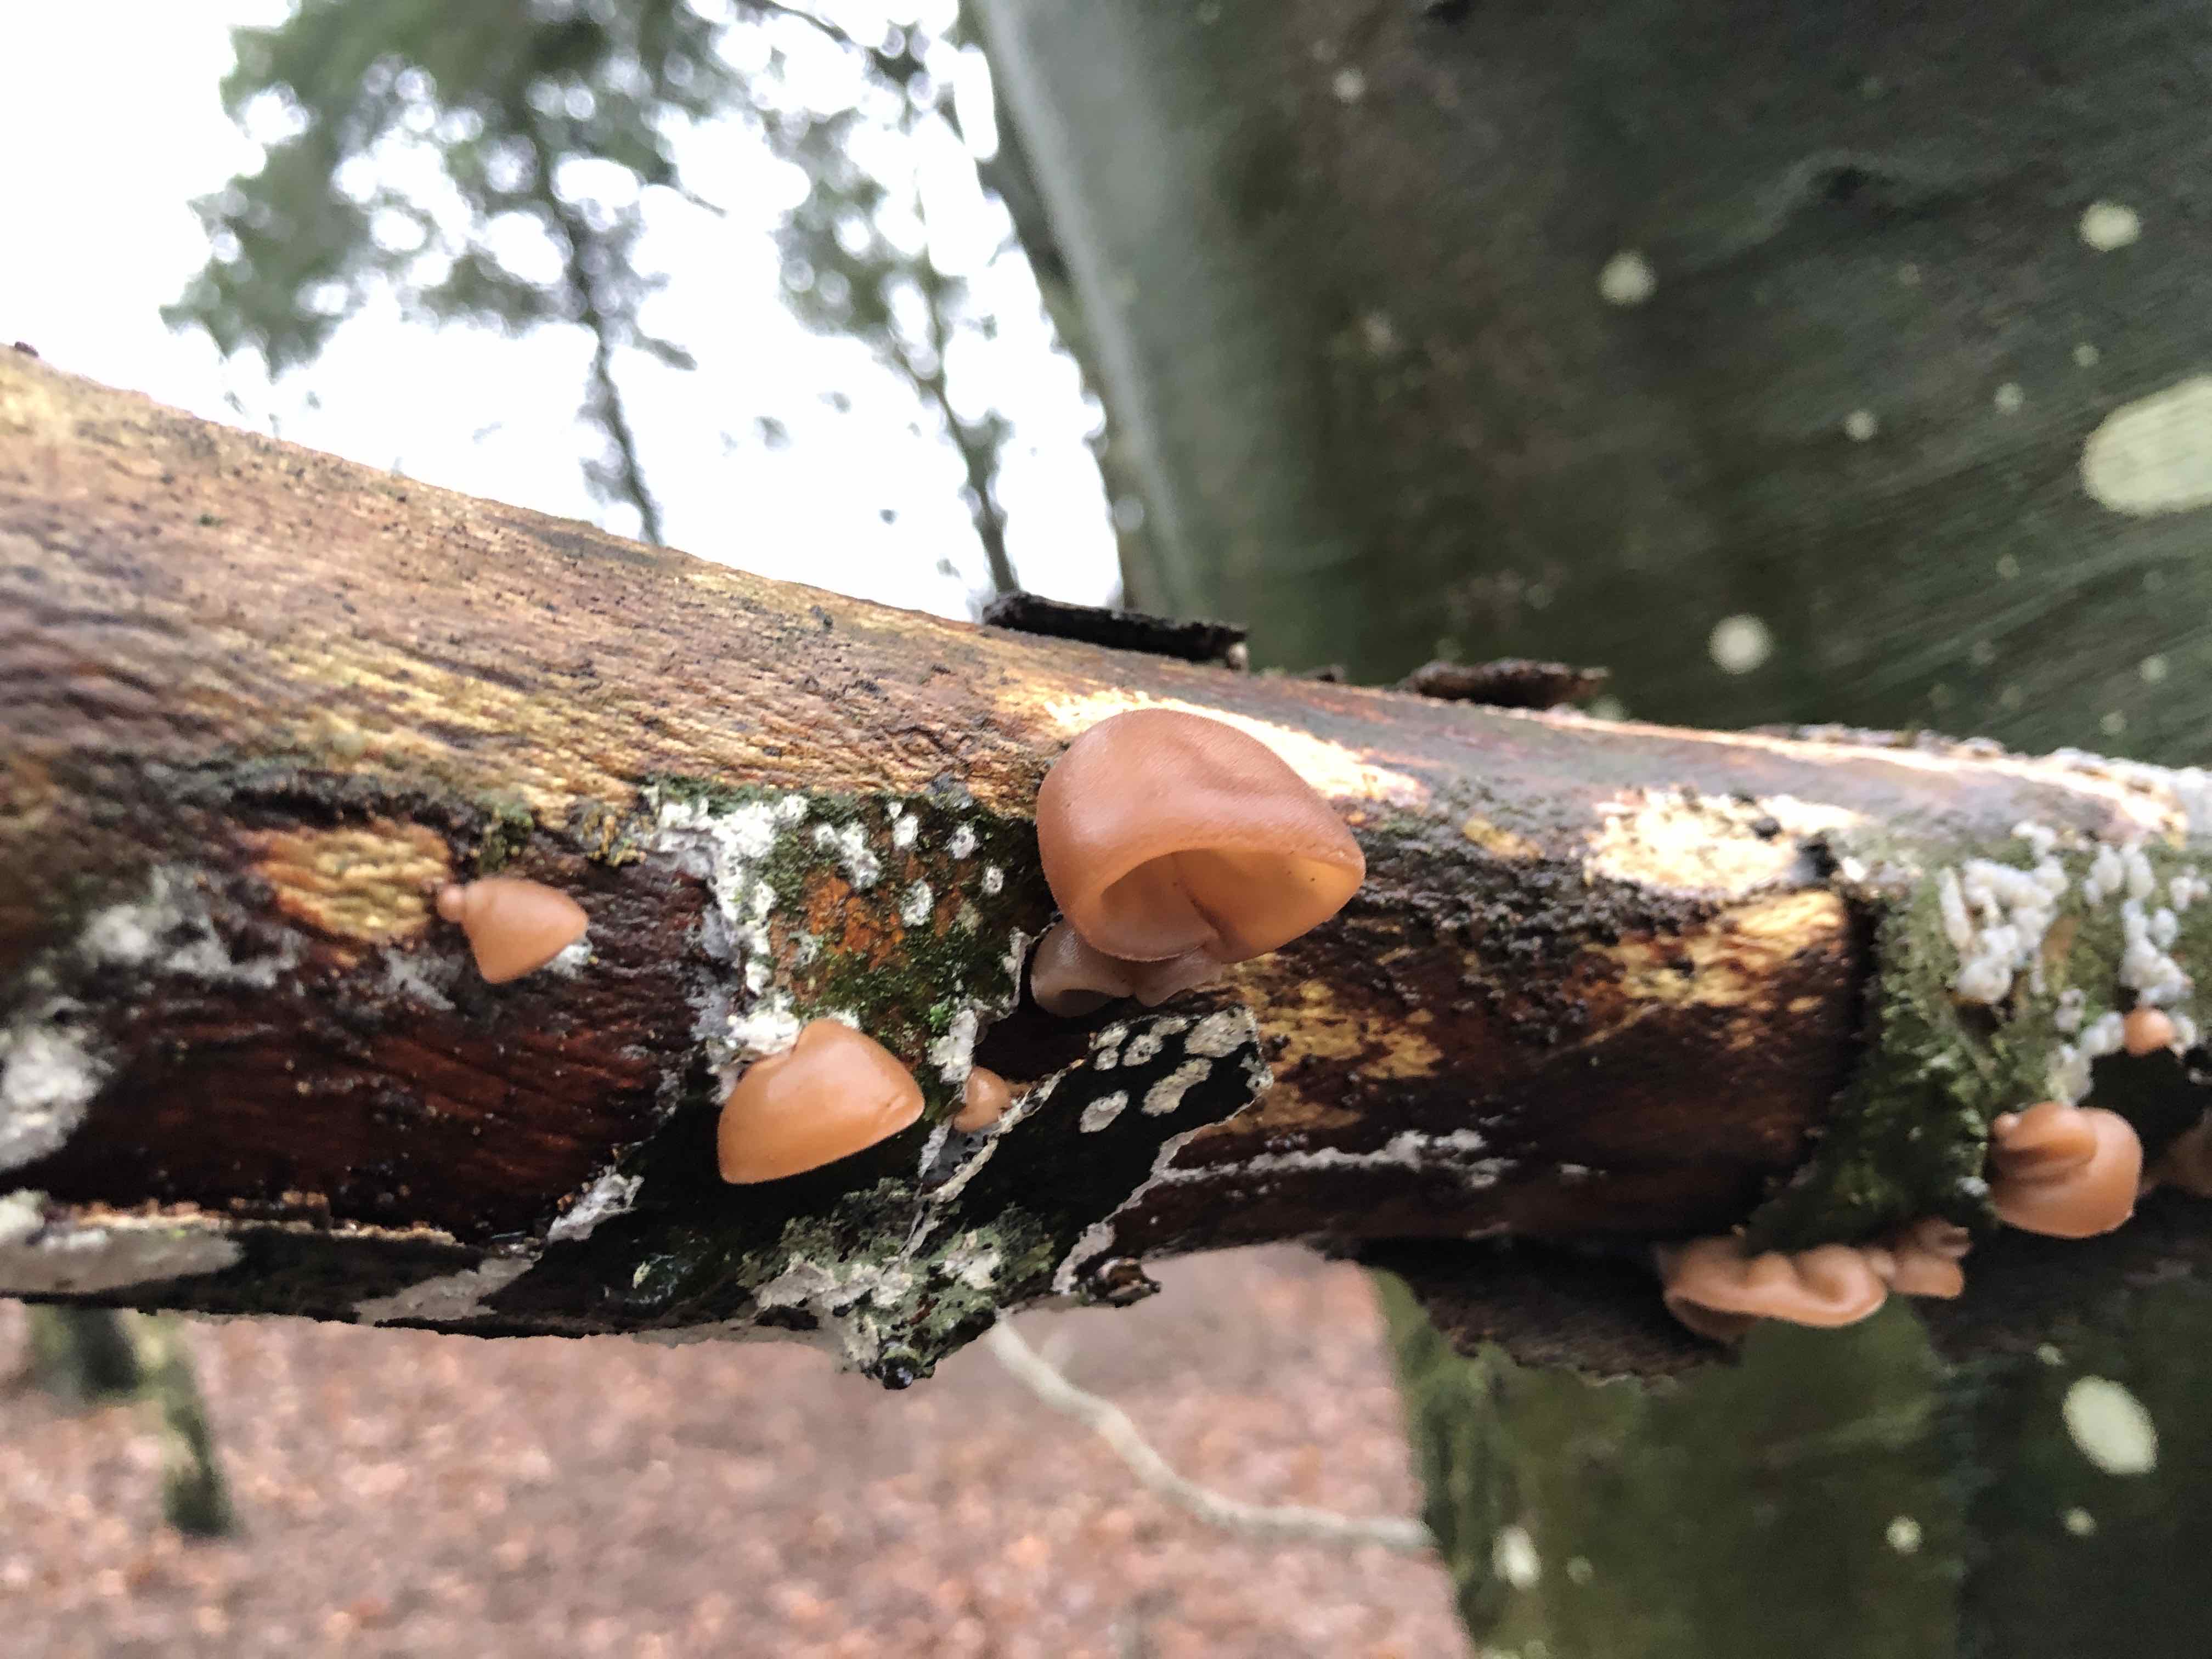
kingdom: Fungi
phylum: Basidiomycota
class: Agaricomycetes
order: Auriculariales
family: Auriculariaceae
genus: Auricularia
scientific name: Auricularia auricula-judae
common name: almindelig judasøre
